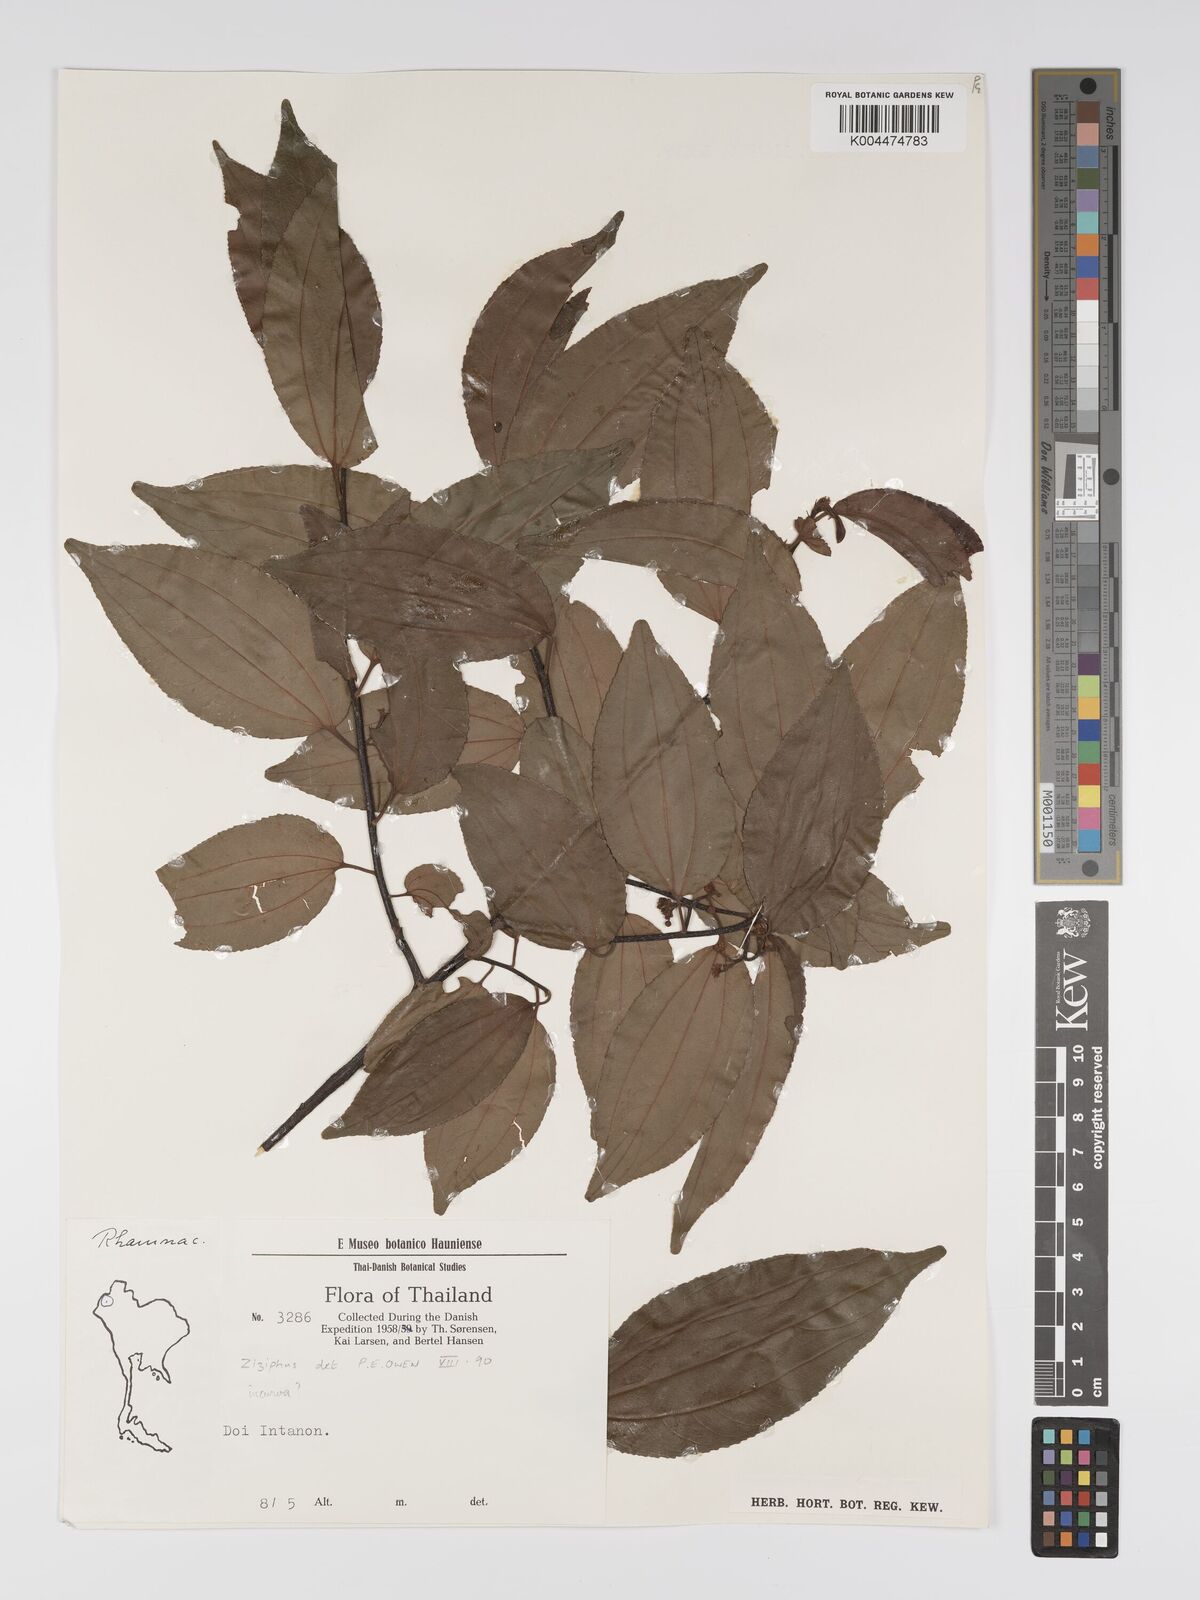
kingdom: Plantae
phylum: Tracheophyta
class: Magnoliopsida
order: Rosales
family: Rhamnaceae
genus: Ziziphus
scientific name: Ziziphus incurva
